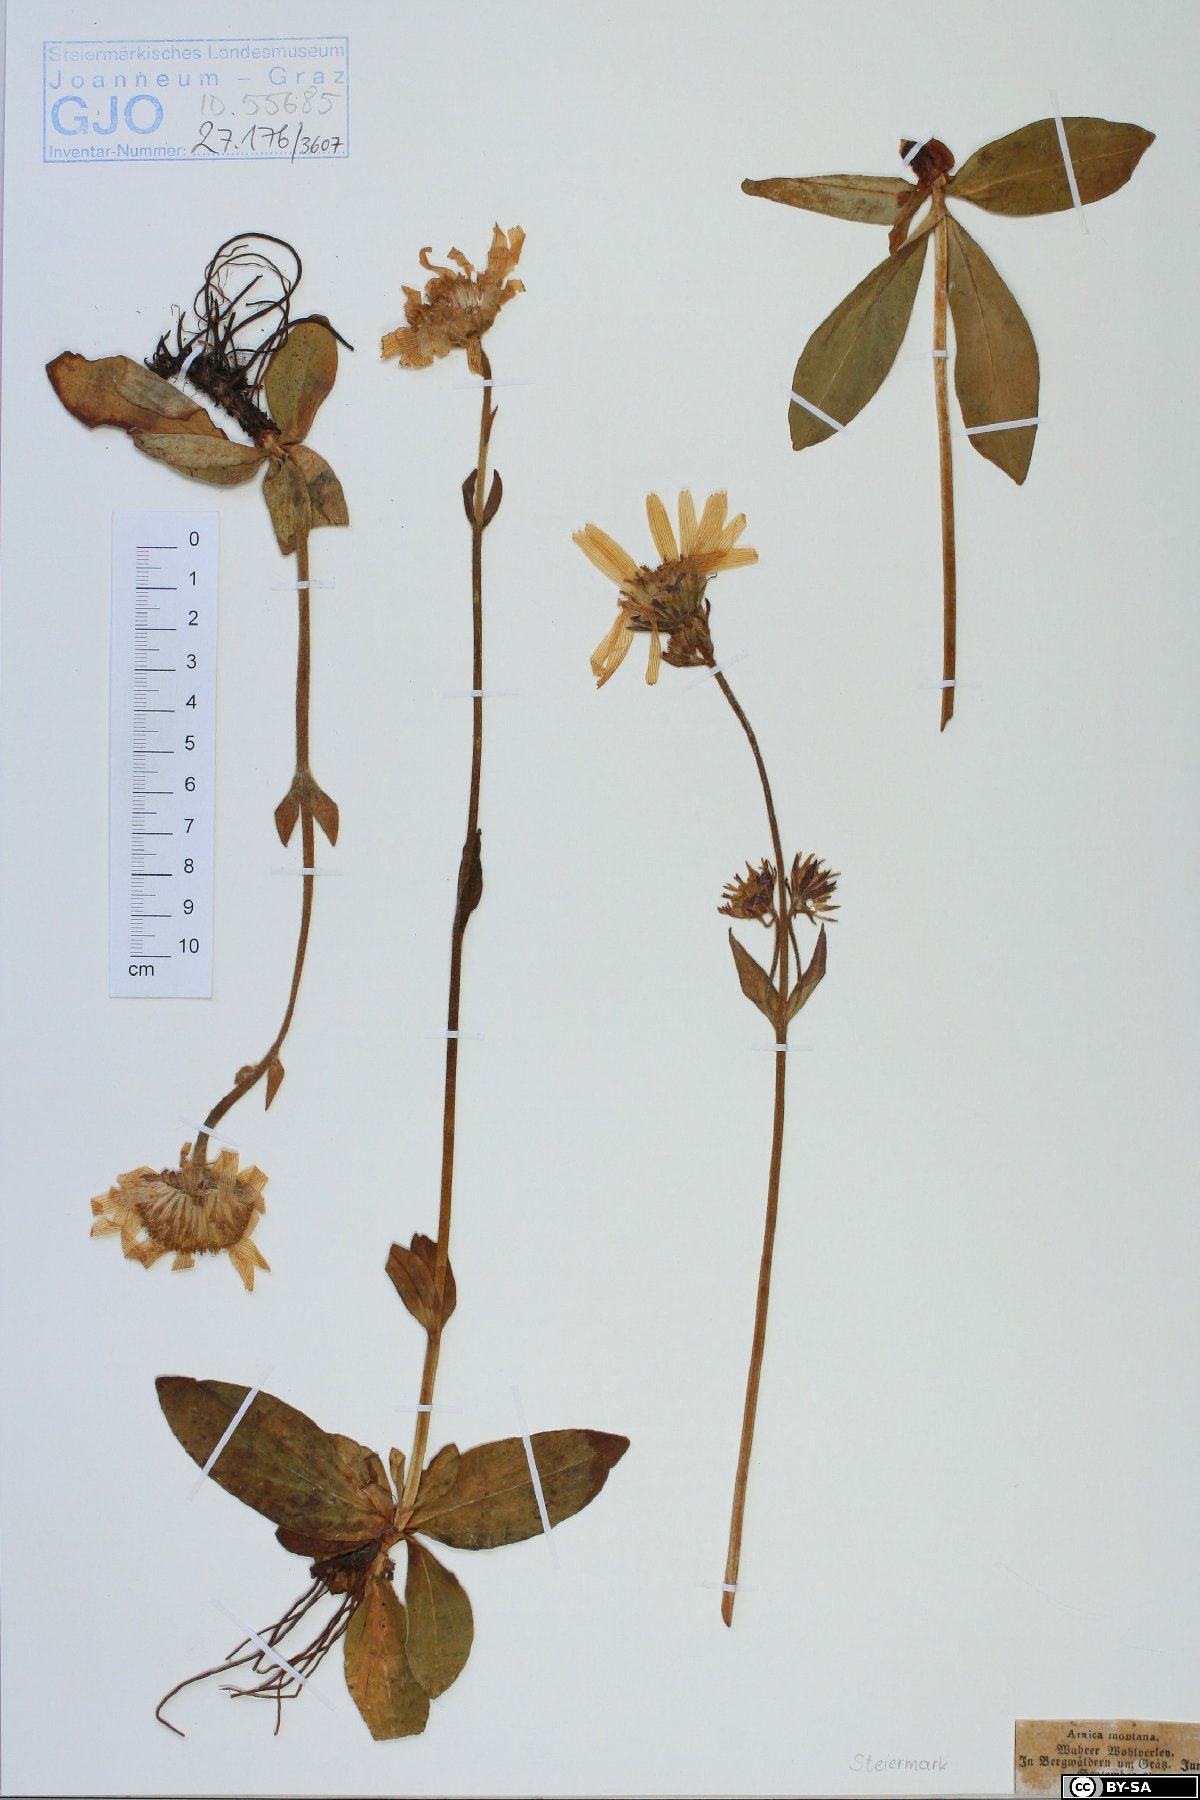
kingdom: Plantae
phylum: Tracheophyta
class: Magnoliopsida
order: Asterales
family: Asteraceae
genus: Arnica
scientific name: Arnica montana
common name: Leopard's bane
